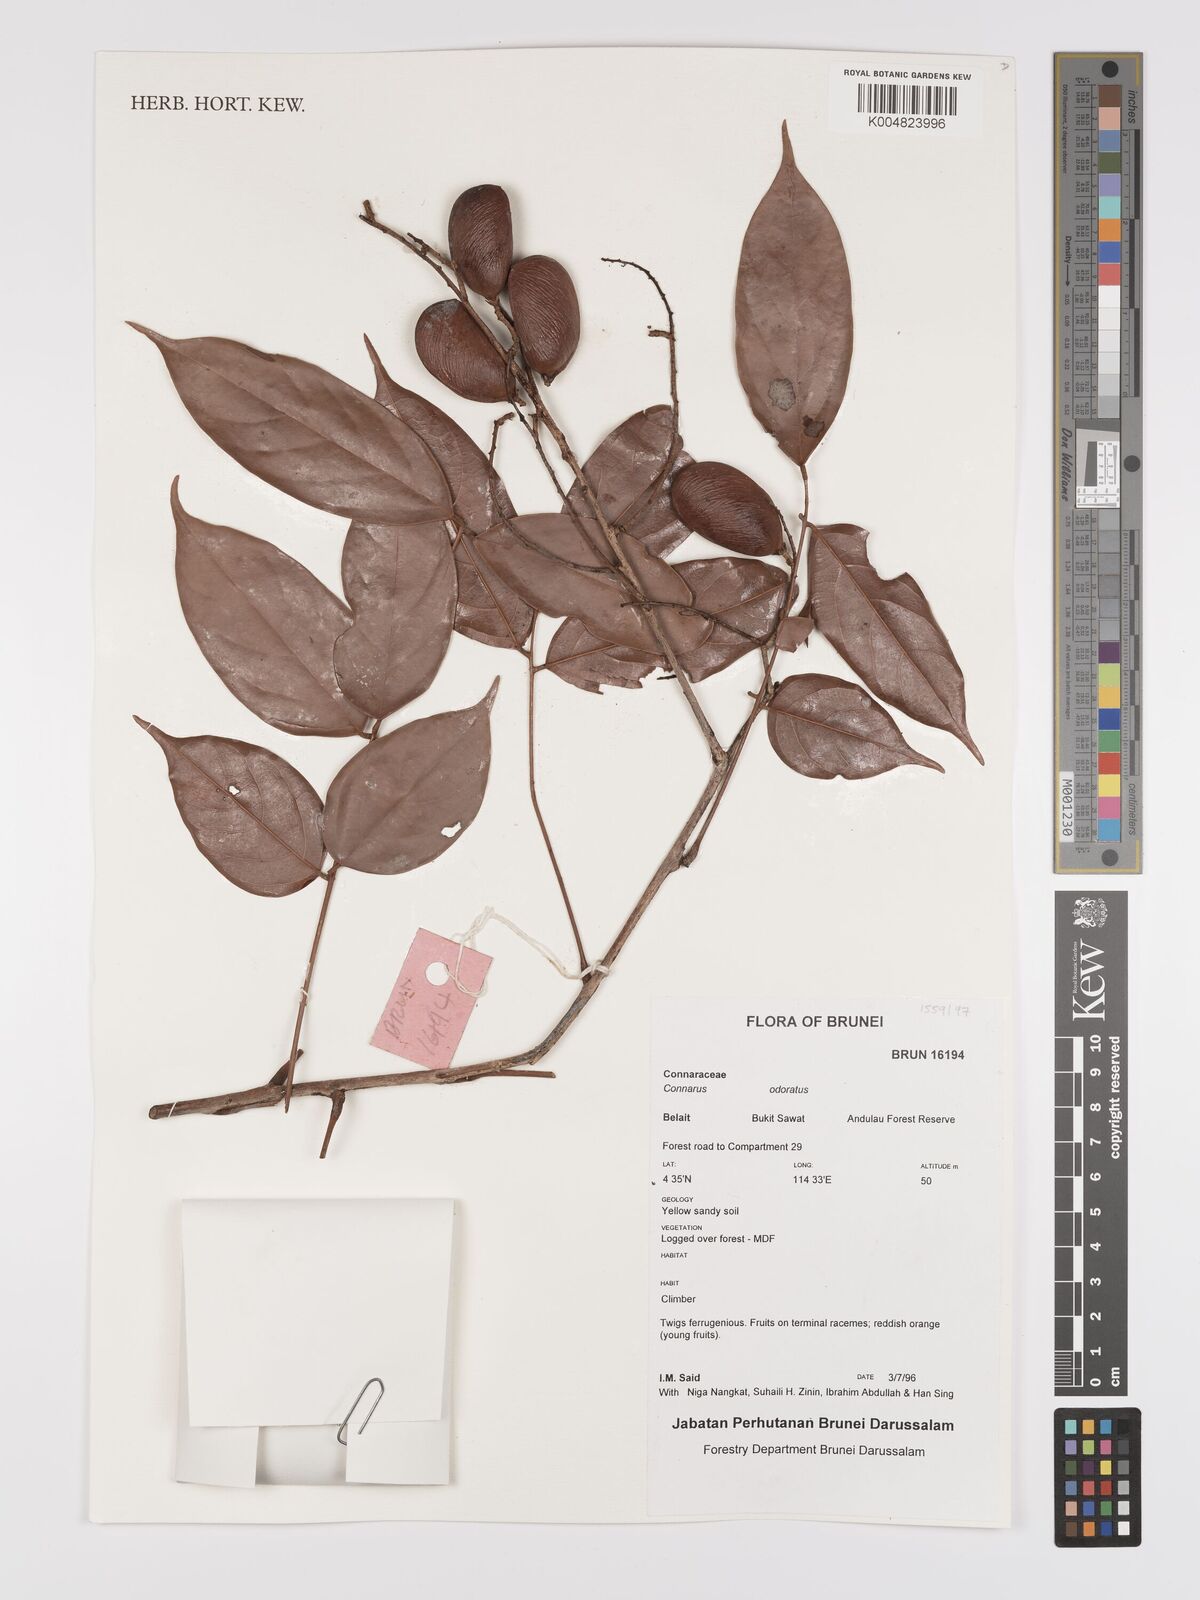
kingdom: Plantae
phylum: Tracheophyta
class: Magnoliopsida
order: Oxalidales
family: Connaraceae
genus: Connarus
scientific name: Connarus odoratus
